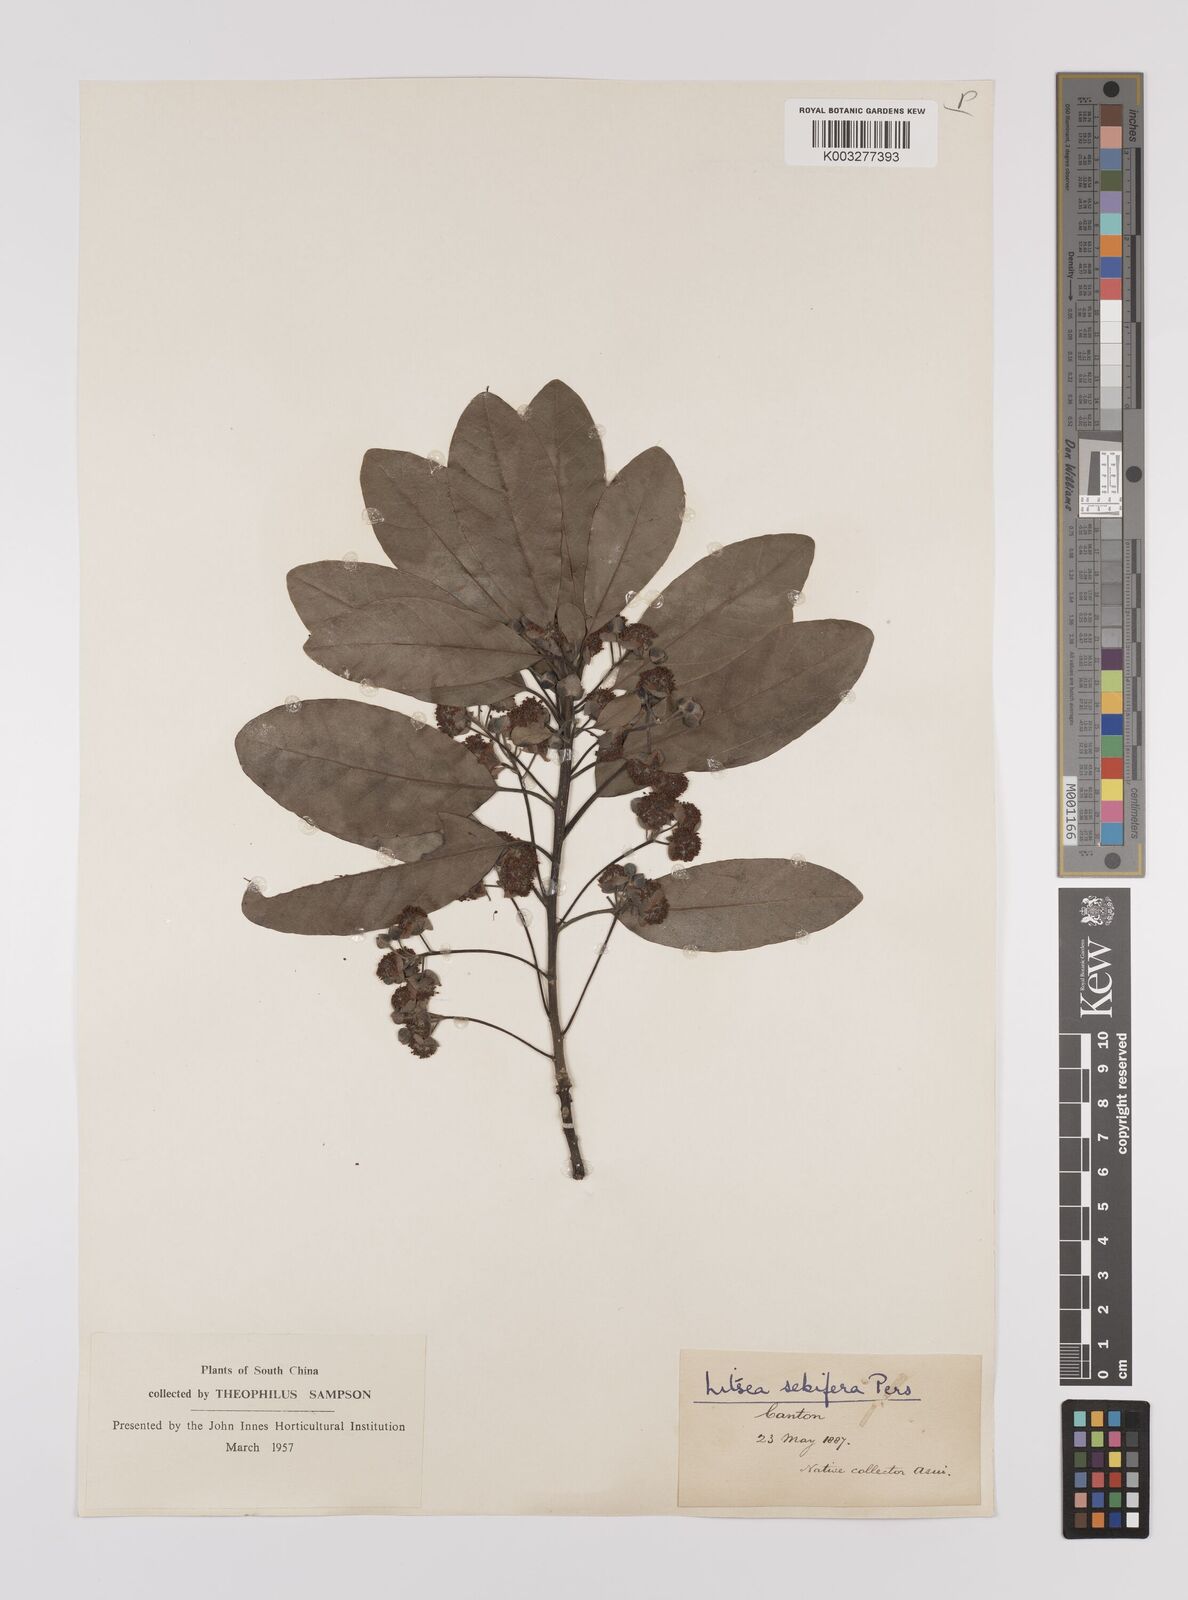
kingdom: Plantae
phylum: Tracheophyta
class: Magnoliopsida
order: Laurales
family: Lauraceae
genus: Litsea
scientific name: Litsea glutinosa
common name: Indian-laurel
